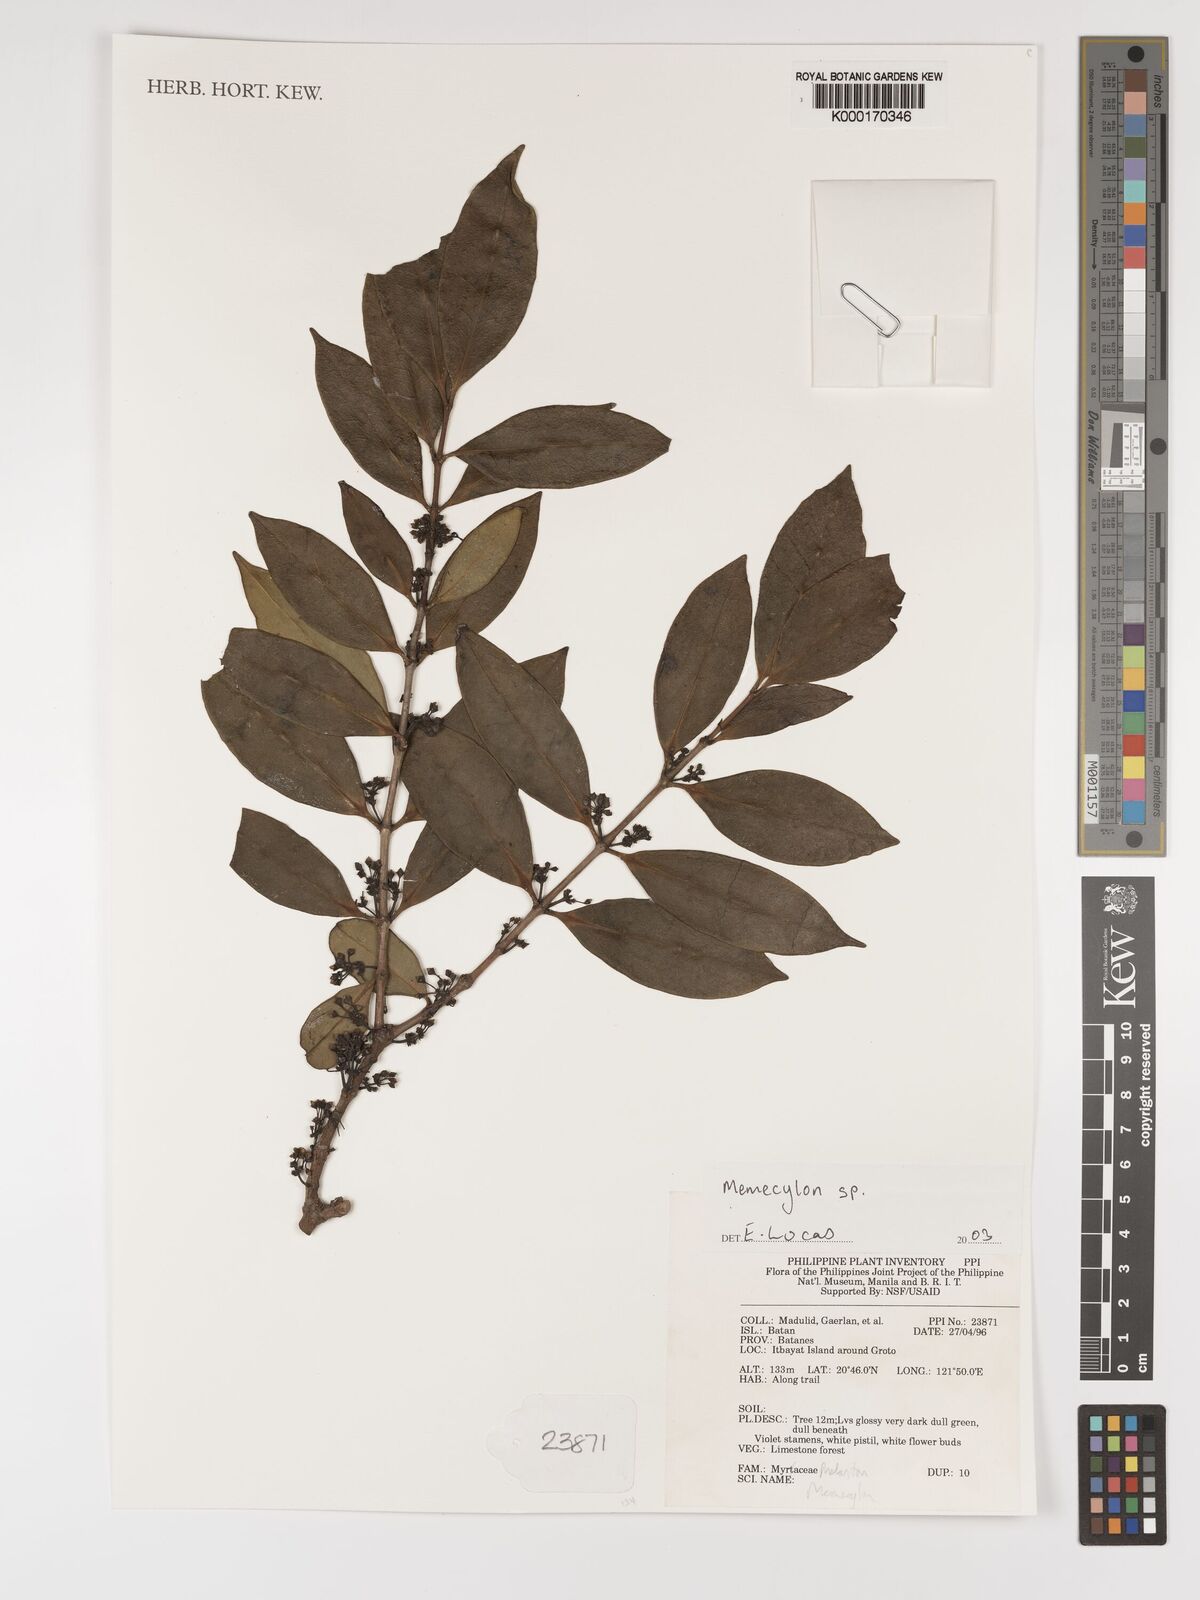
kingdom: Plantae
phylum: Tracheophyta
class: Magnoliopsida
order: Myrtales
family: Melastomataceae
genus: Memecylon
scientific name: Memecylon
